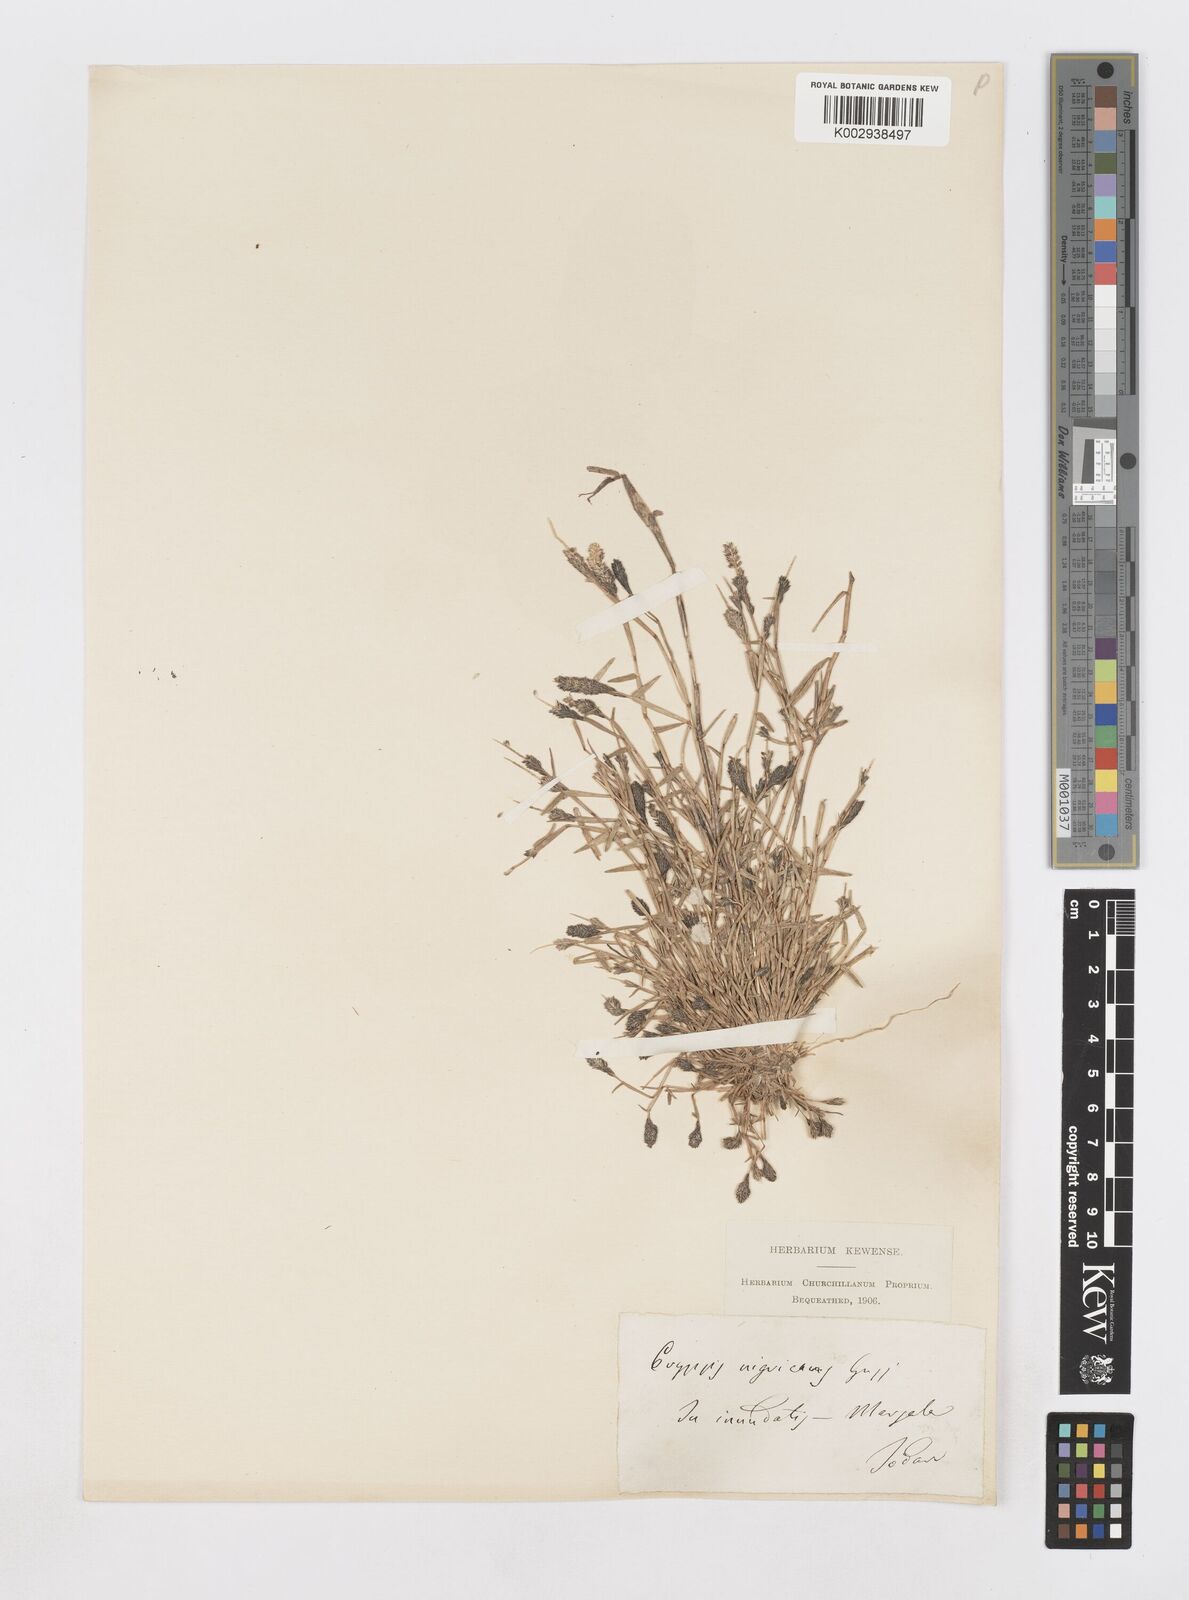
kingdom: Plantae
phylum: Tracheophyta
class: Liliopsida
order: Poales
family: Poaceae
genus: Sporobolus
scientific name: Sporobolus alopecuroides
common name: Foxtail pricklegrass
